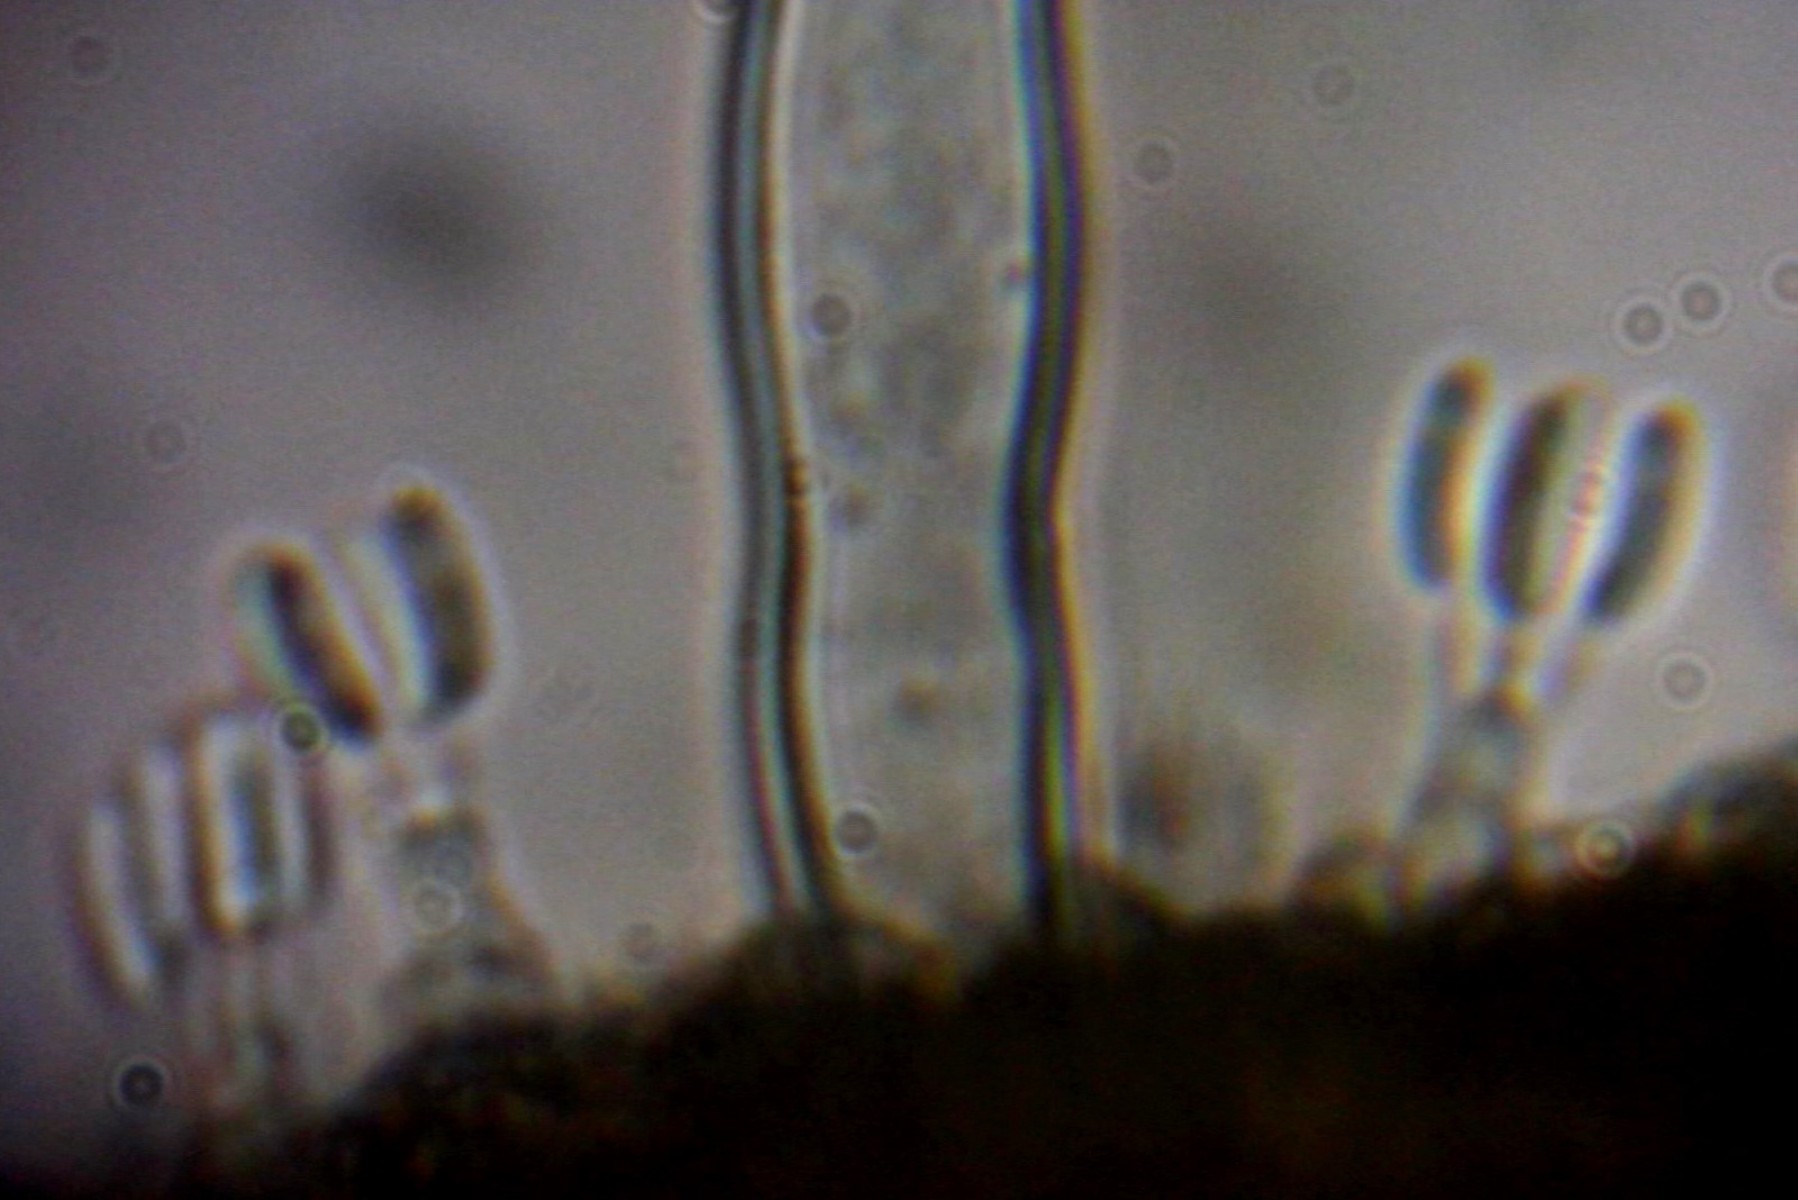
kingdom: Fungi
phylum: Basidiomycota
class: Agaricomycetes
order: Polyporales
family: Dacryobolaceae
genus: Dacryobolus
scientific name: Dacryobolus karstenii
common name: glat vulkanskorpe
